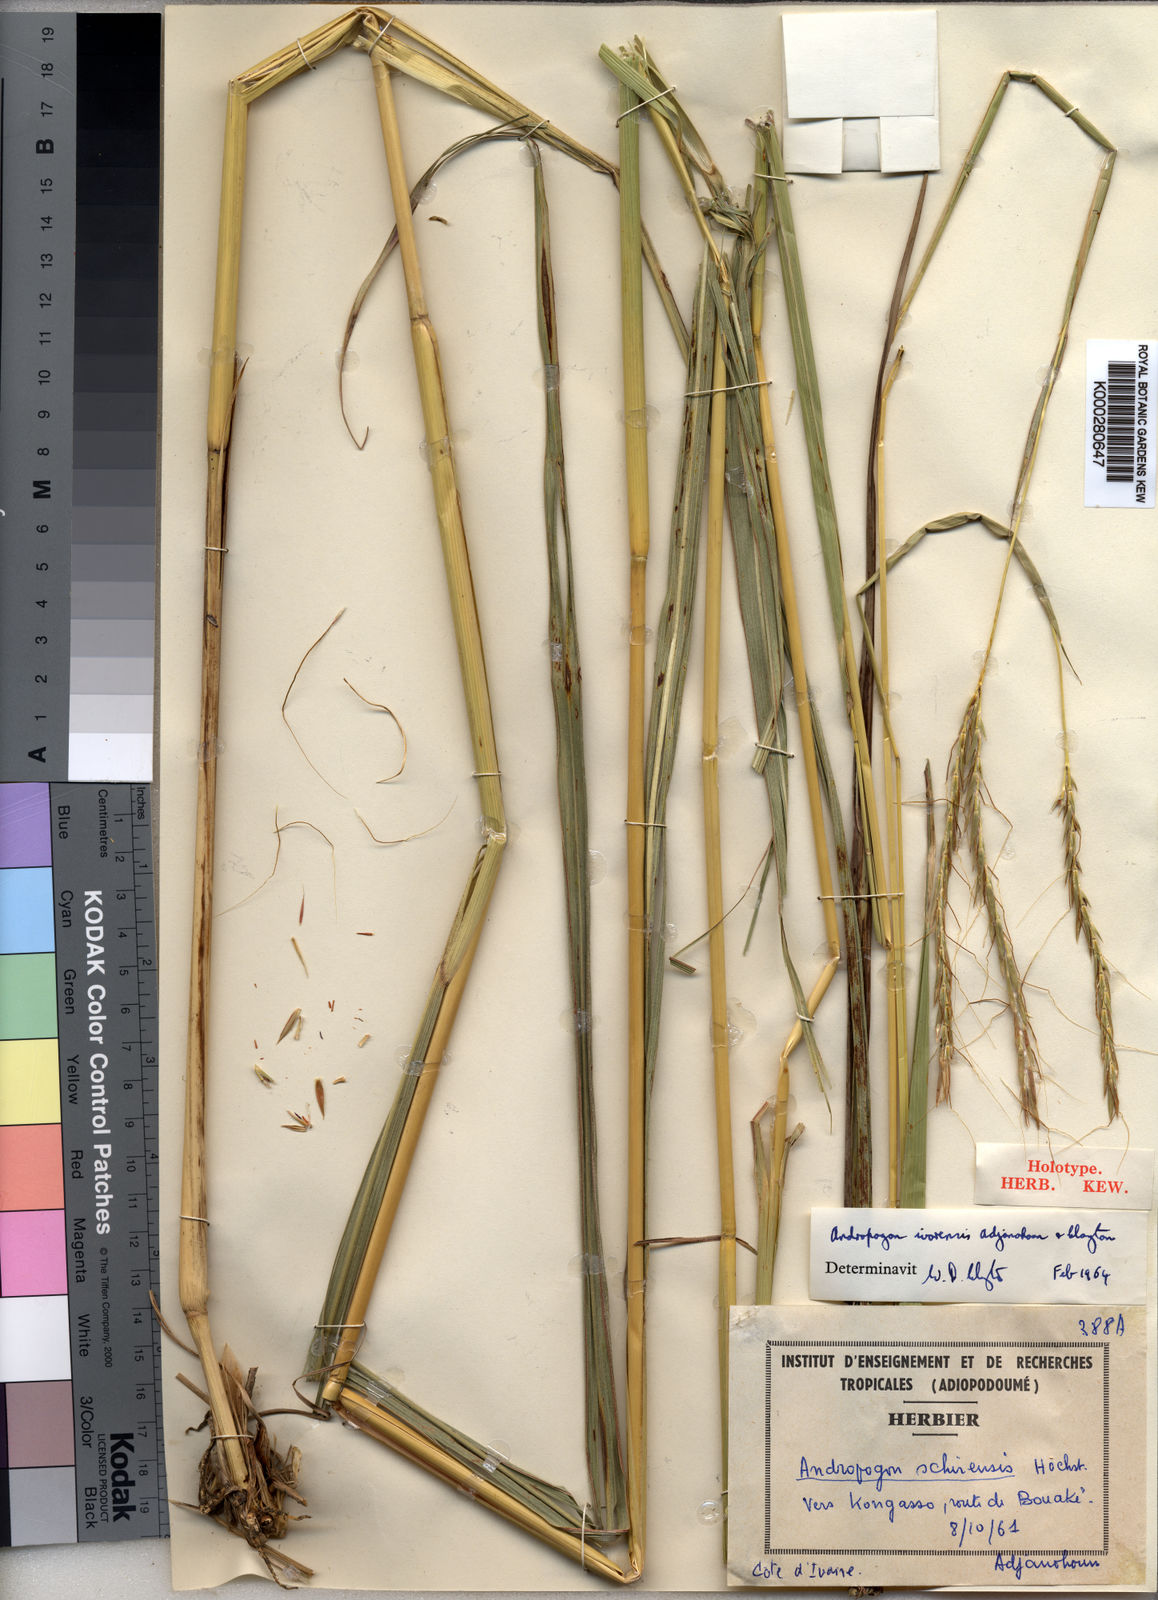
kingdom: Plantae
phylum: Tracheophyta
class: Liliopsida
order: Poales
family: Poaceae
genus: Andropogon
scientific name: Andropogon ivorensis
